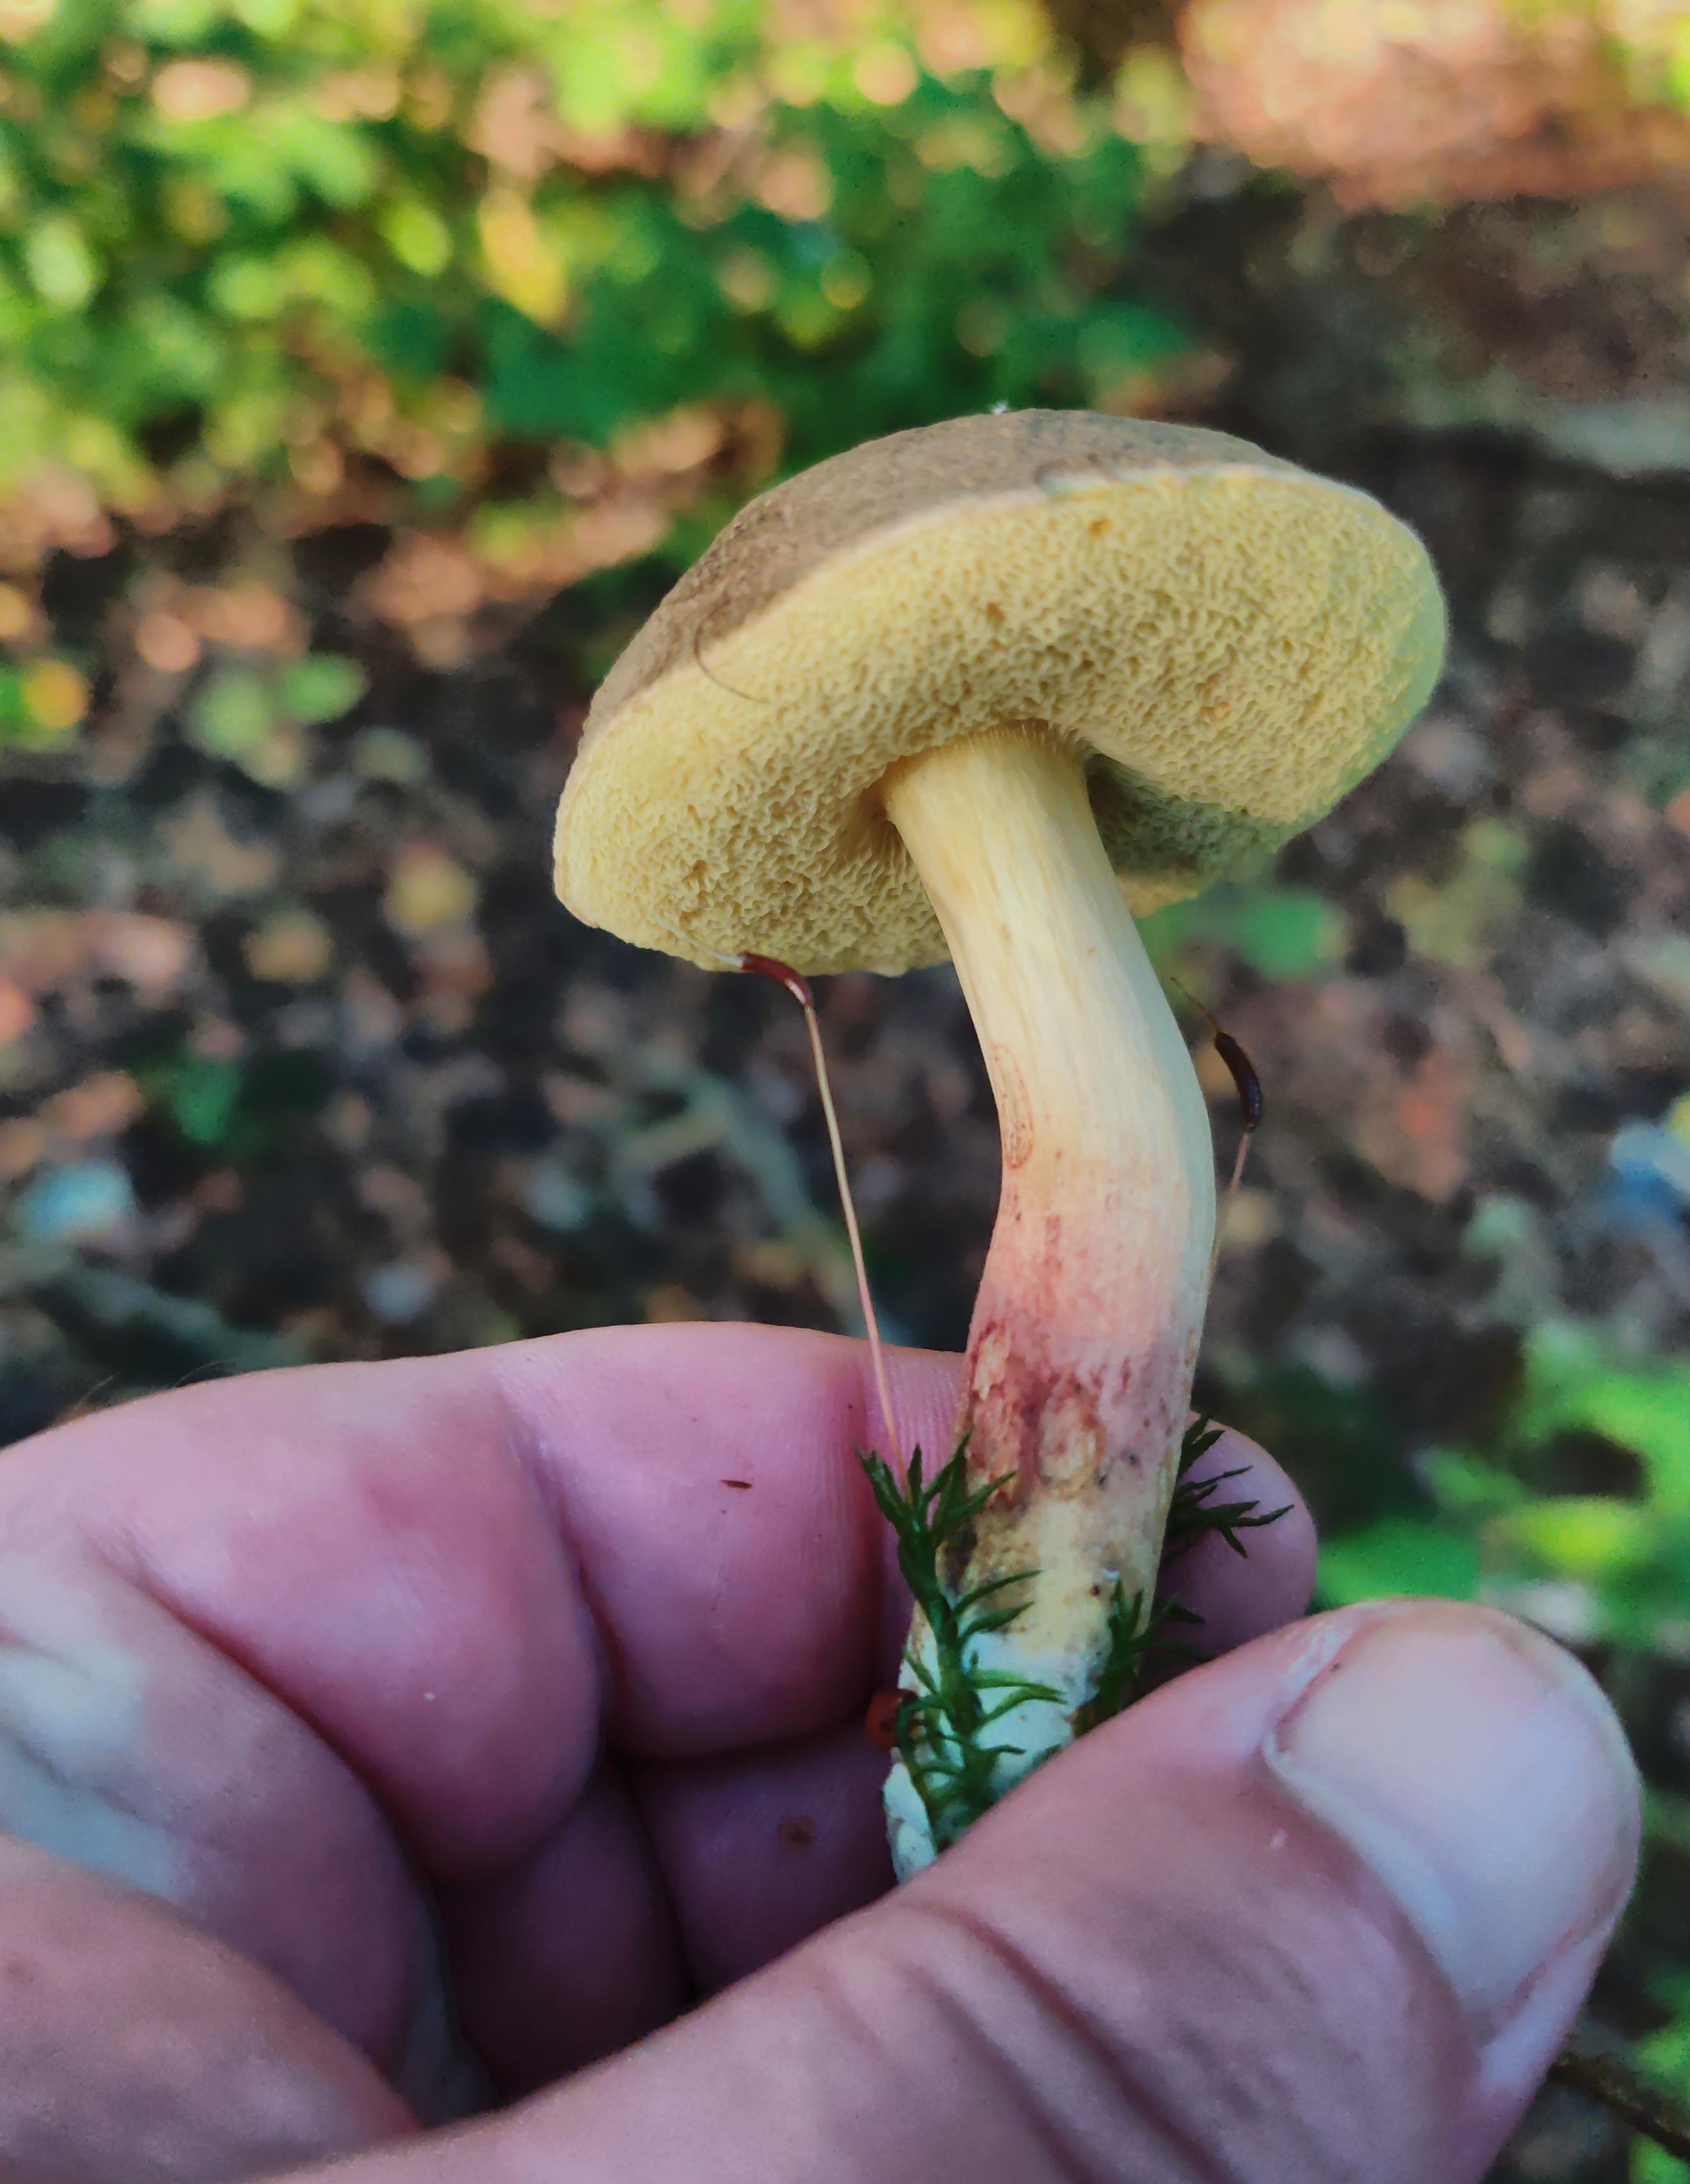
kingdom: Fungi
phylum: Basidiomycota
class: Agaricomycetes
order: Boletales
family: Boletaceae
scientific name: Boletaceae
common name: rørhatfamilien
